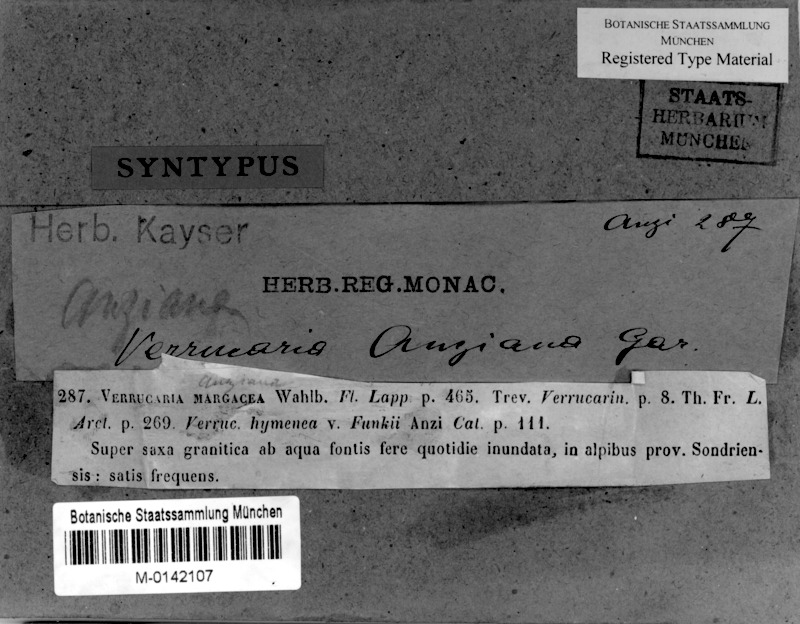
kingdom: Fungi
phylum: Ascomycota
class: Eurotiomycetes
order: Verrucariales
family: Verrucariaceae
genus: Verrucaria
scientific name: Verrucaria latebrosa
